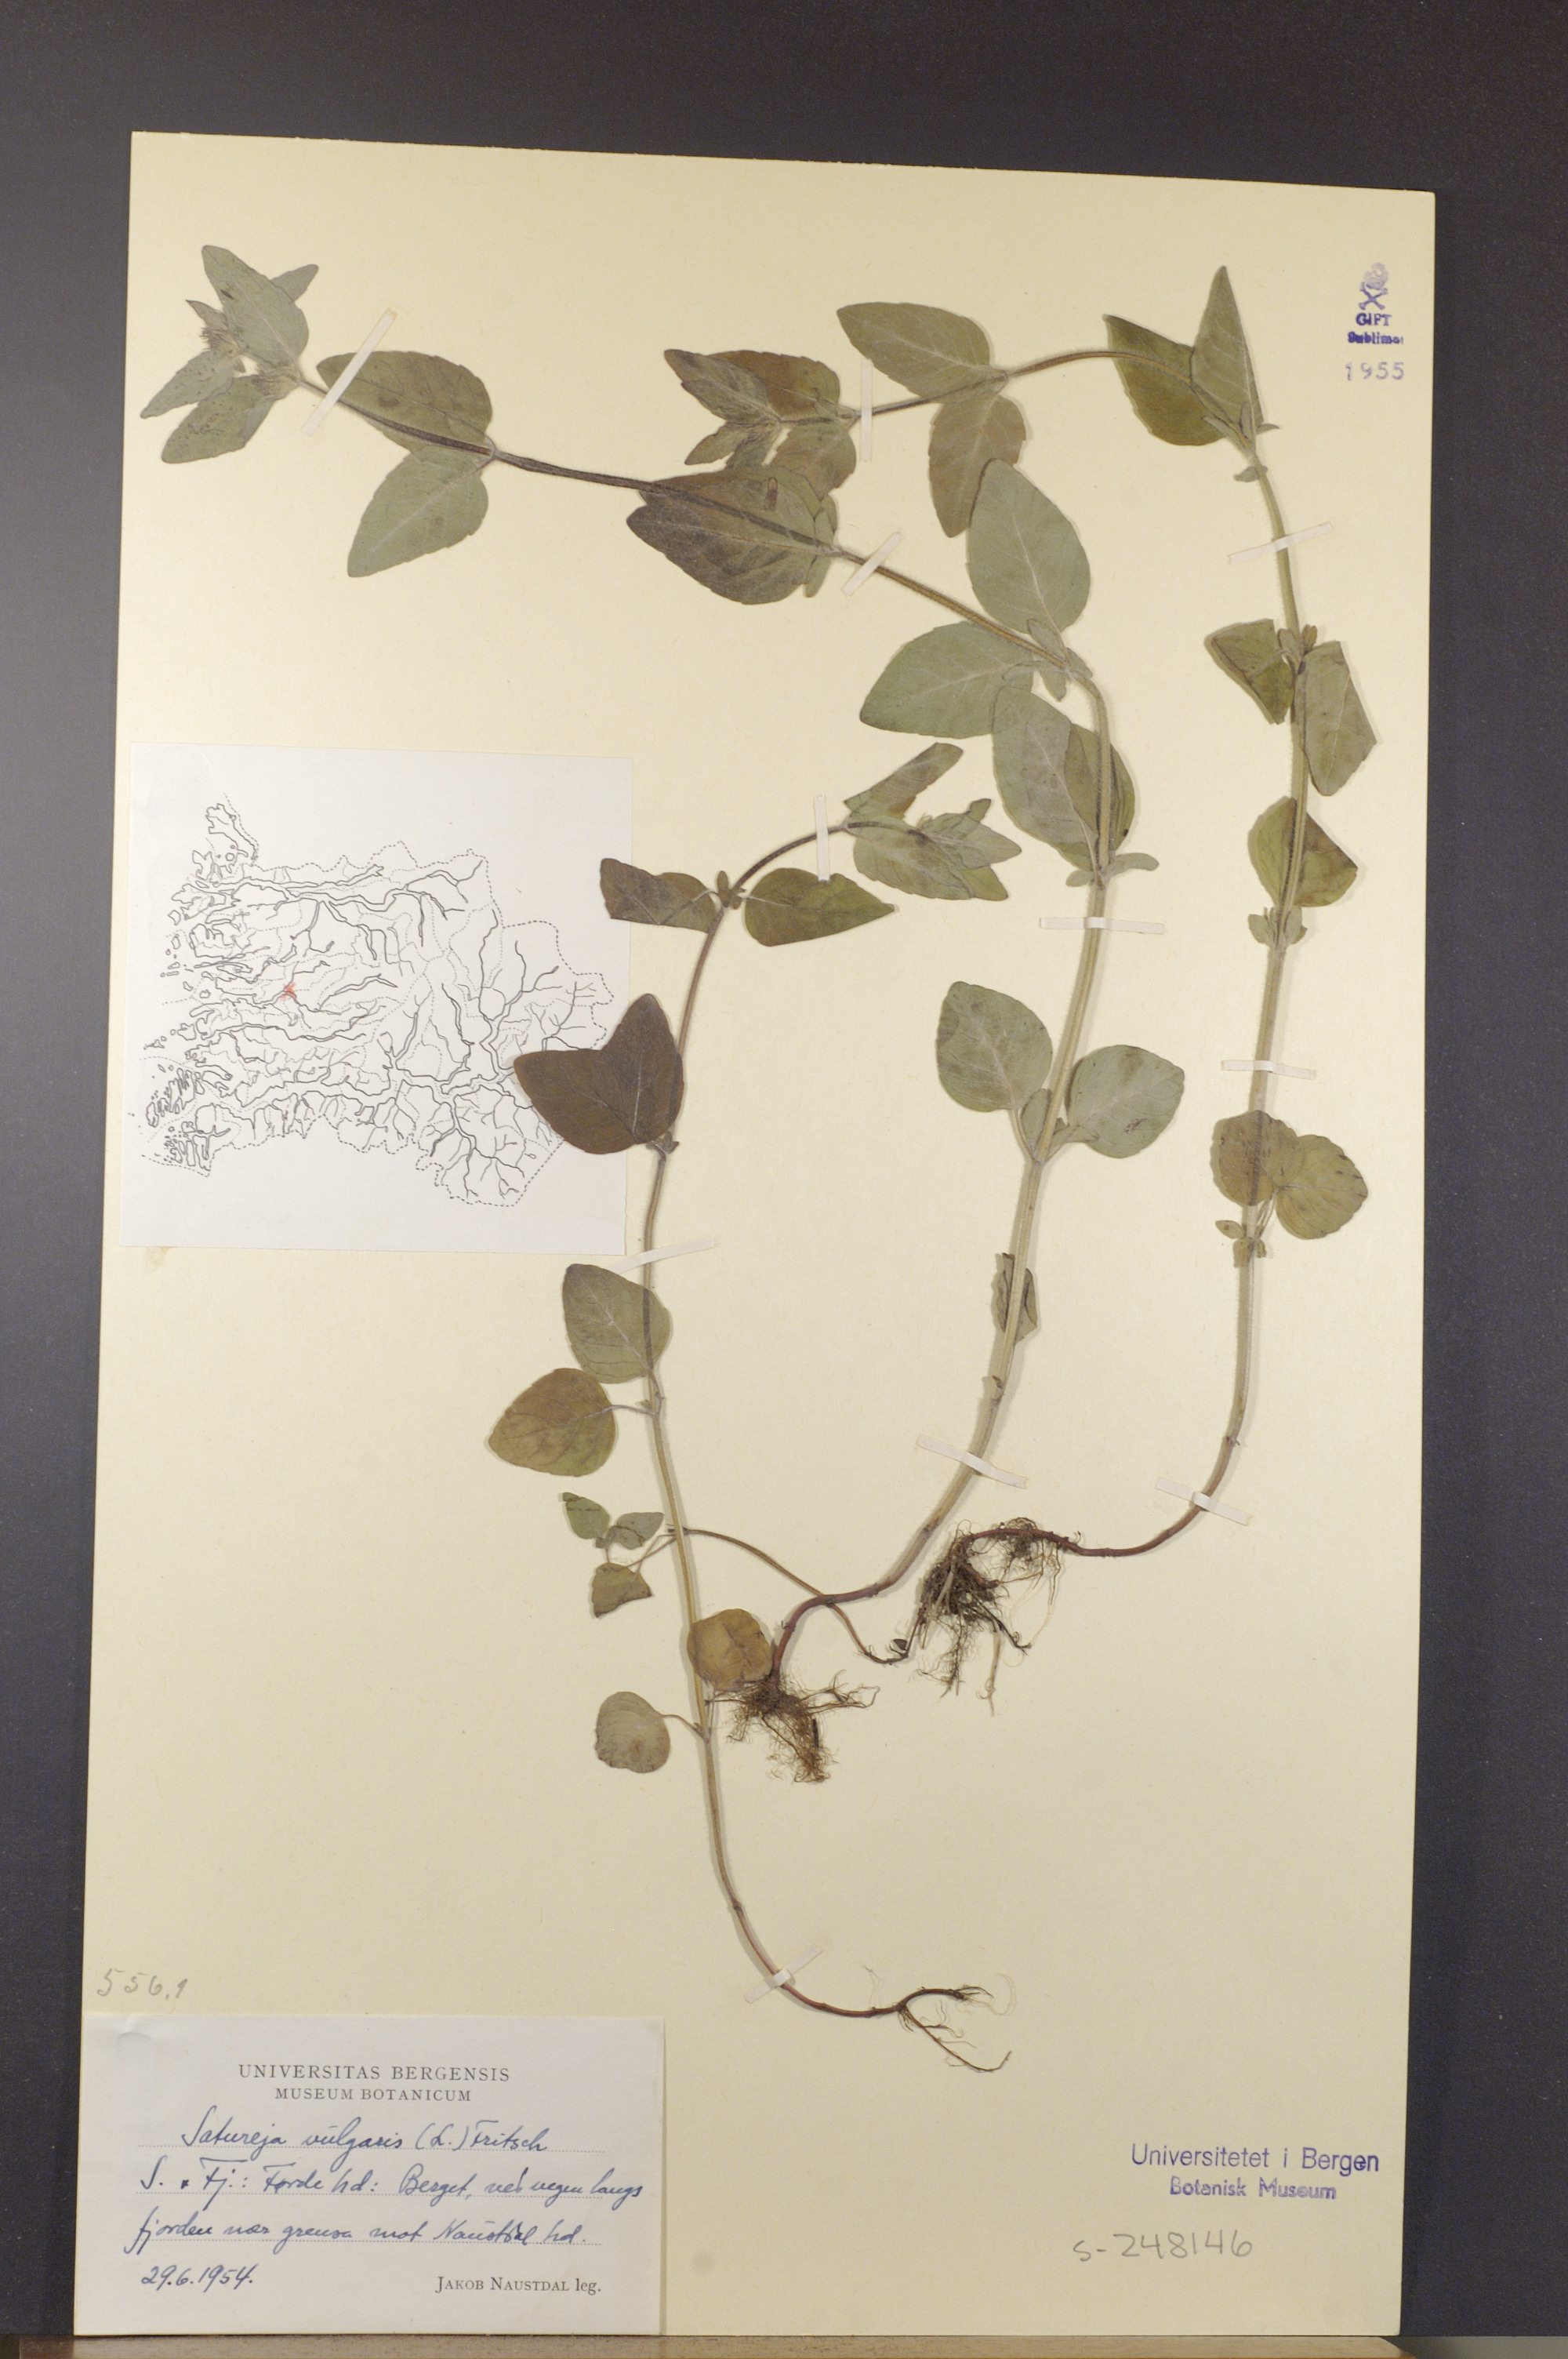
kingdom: Plantae
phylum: Tracheophyta
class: Magnoliopsida
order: Lamiales
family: Lamiaceae
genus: Clinopodium
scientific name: Clinopodium vulgare
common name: Wild basil
